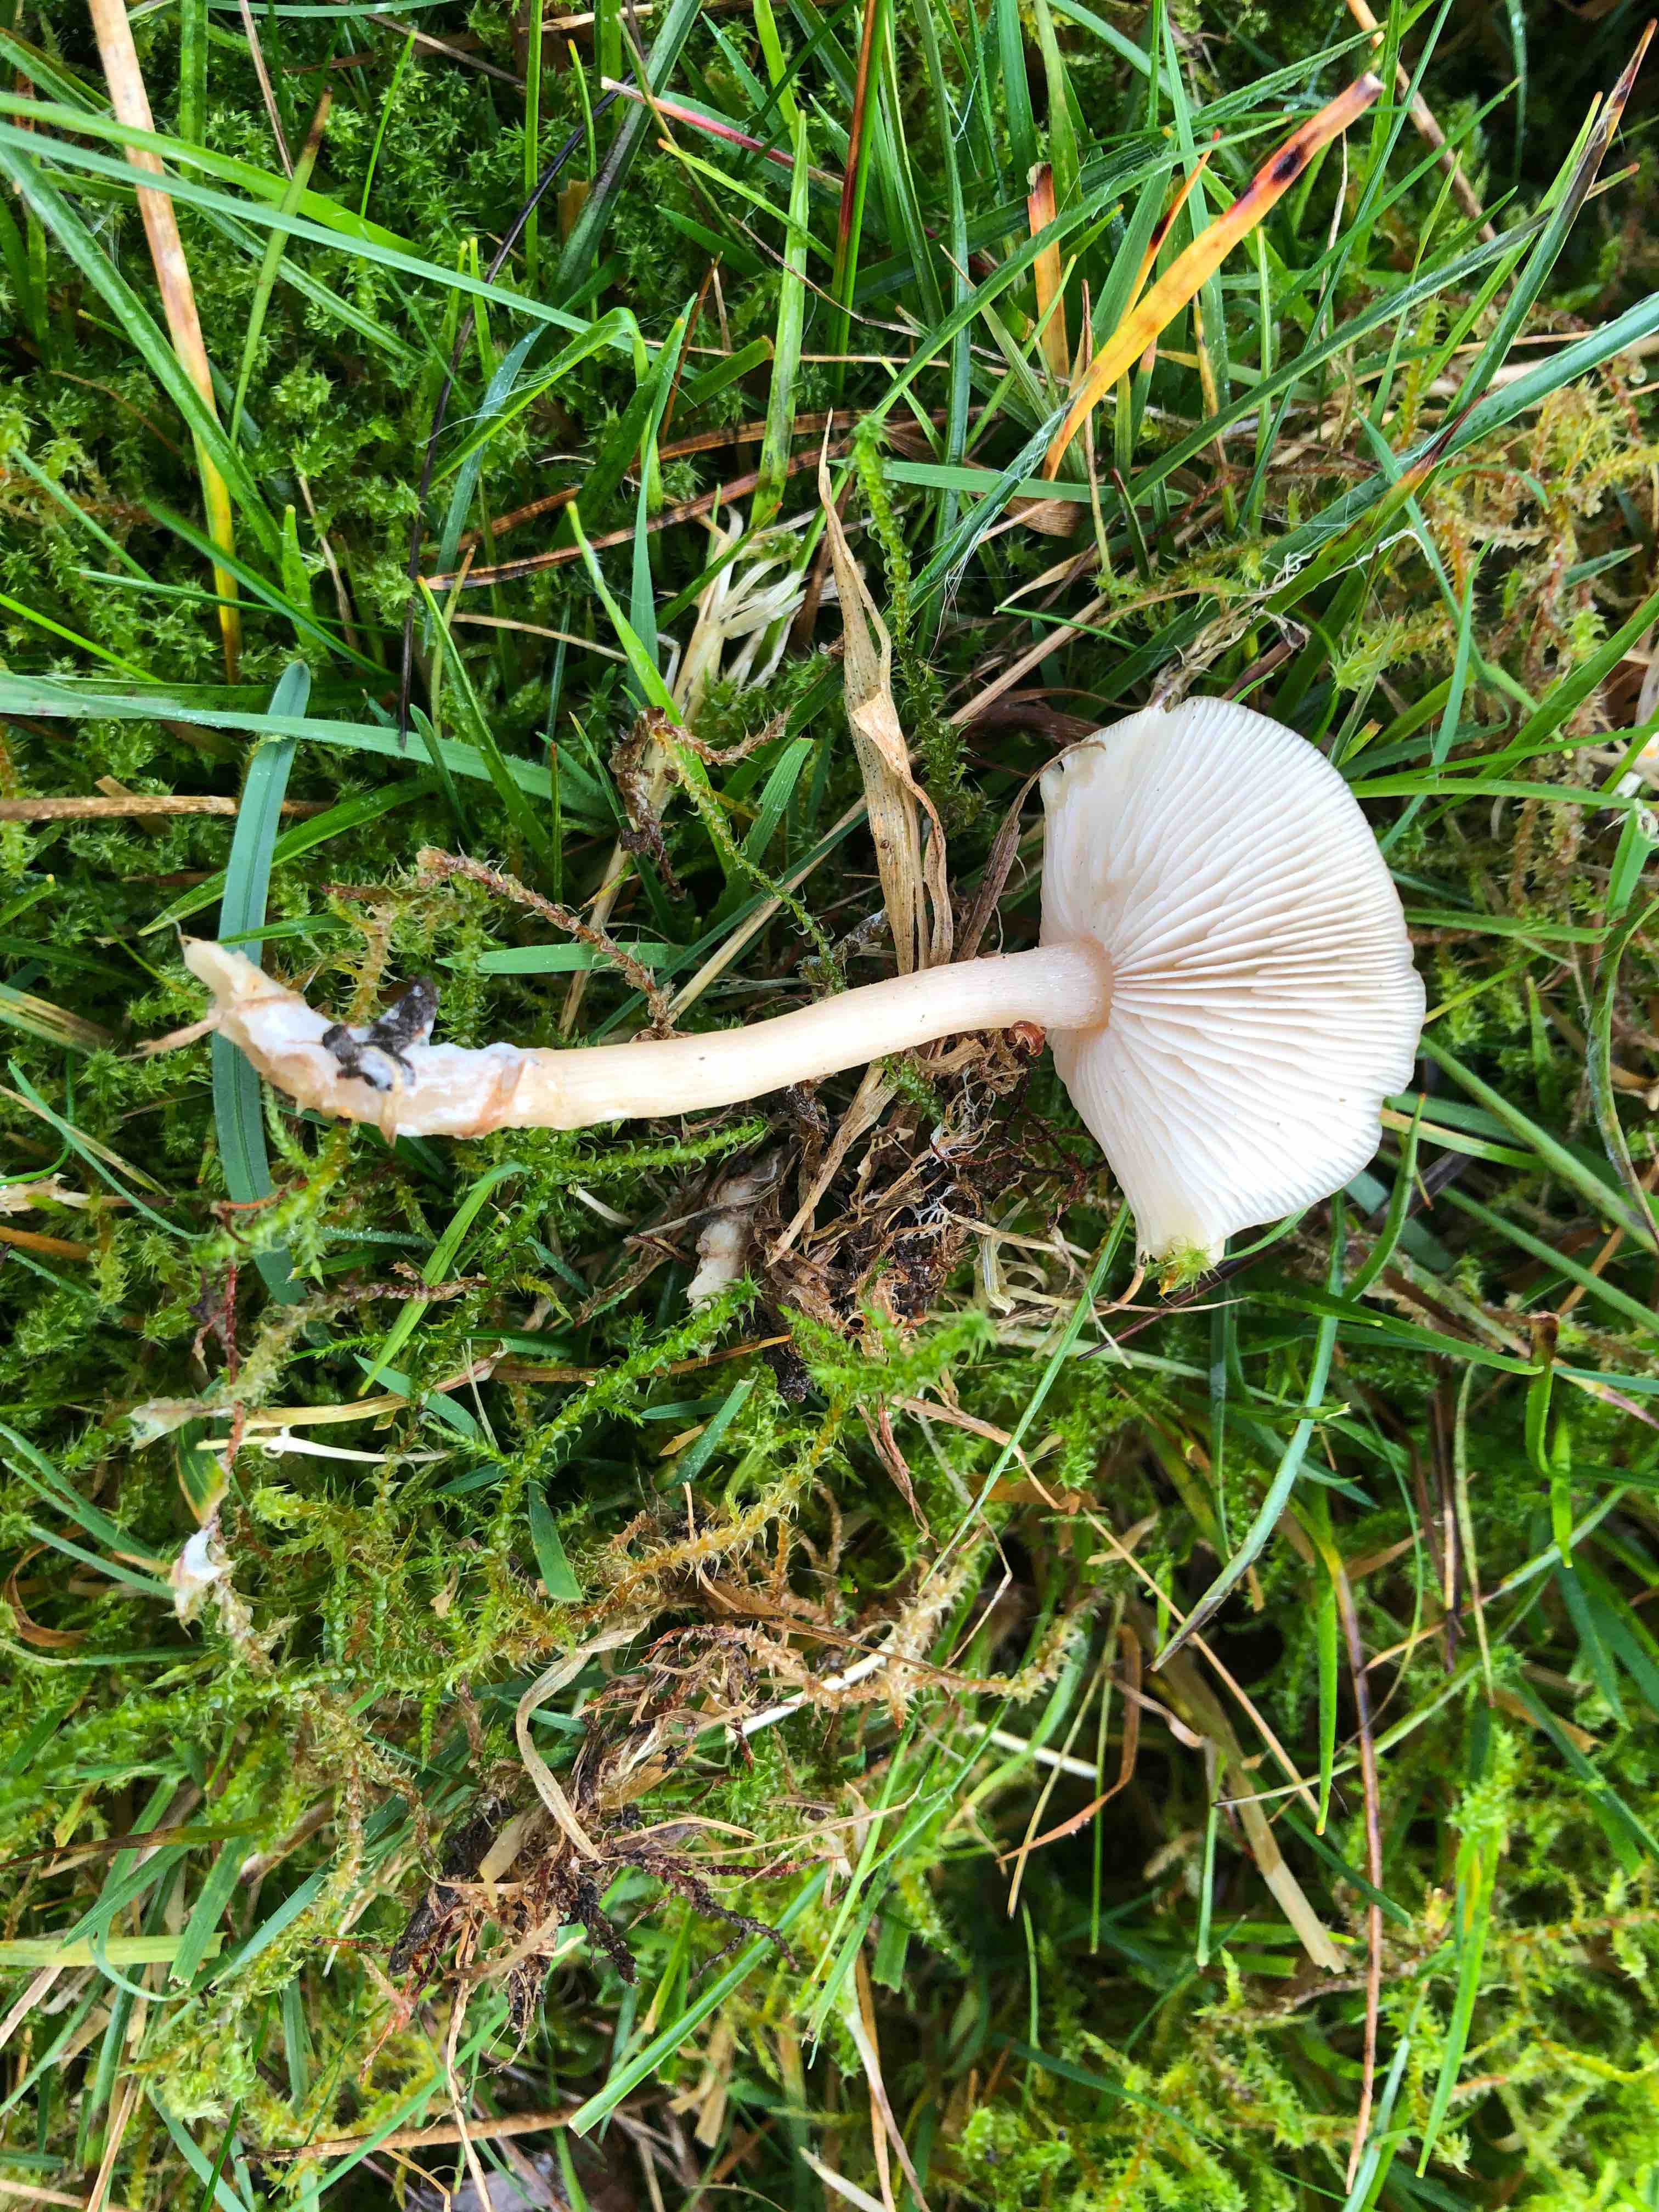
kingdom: Fungi
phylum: Basidiomycota
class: Agaricomycetes
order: Agaricales
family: Tricholomataceae
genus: Clitocybe
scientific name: Clitocybe fragrans
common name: vellugtende tragthat
